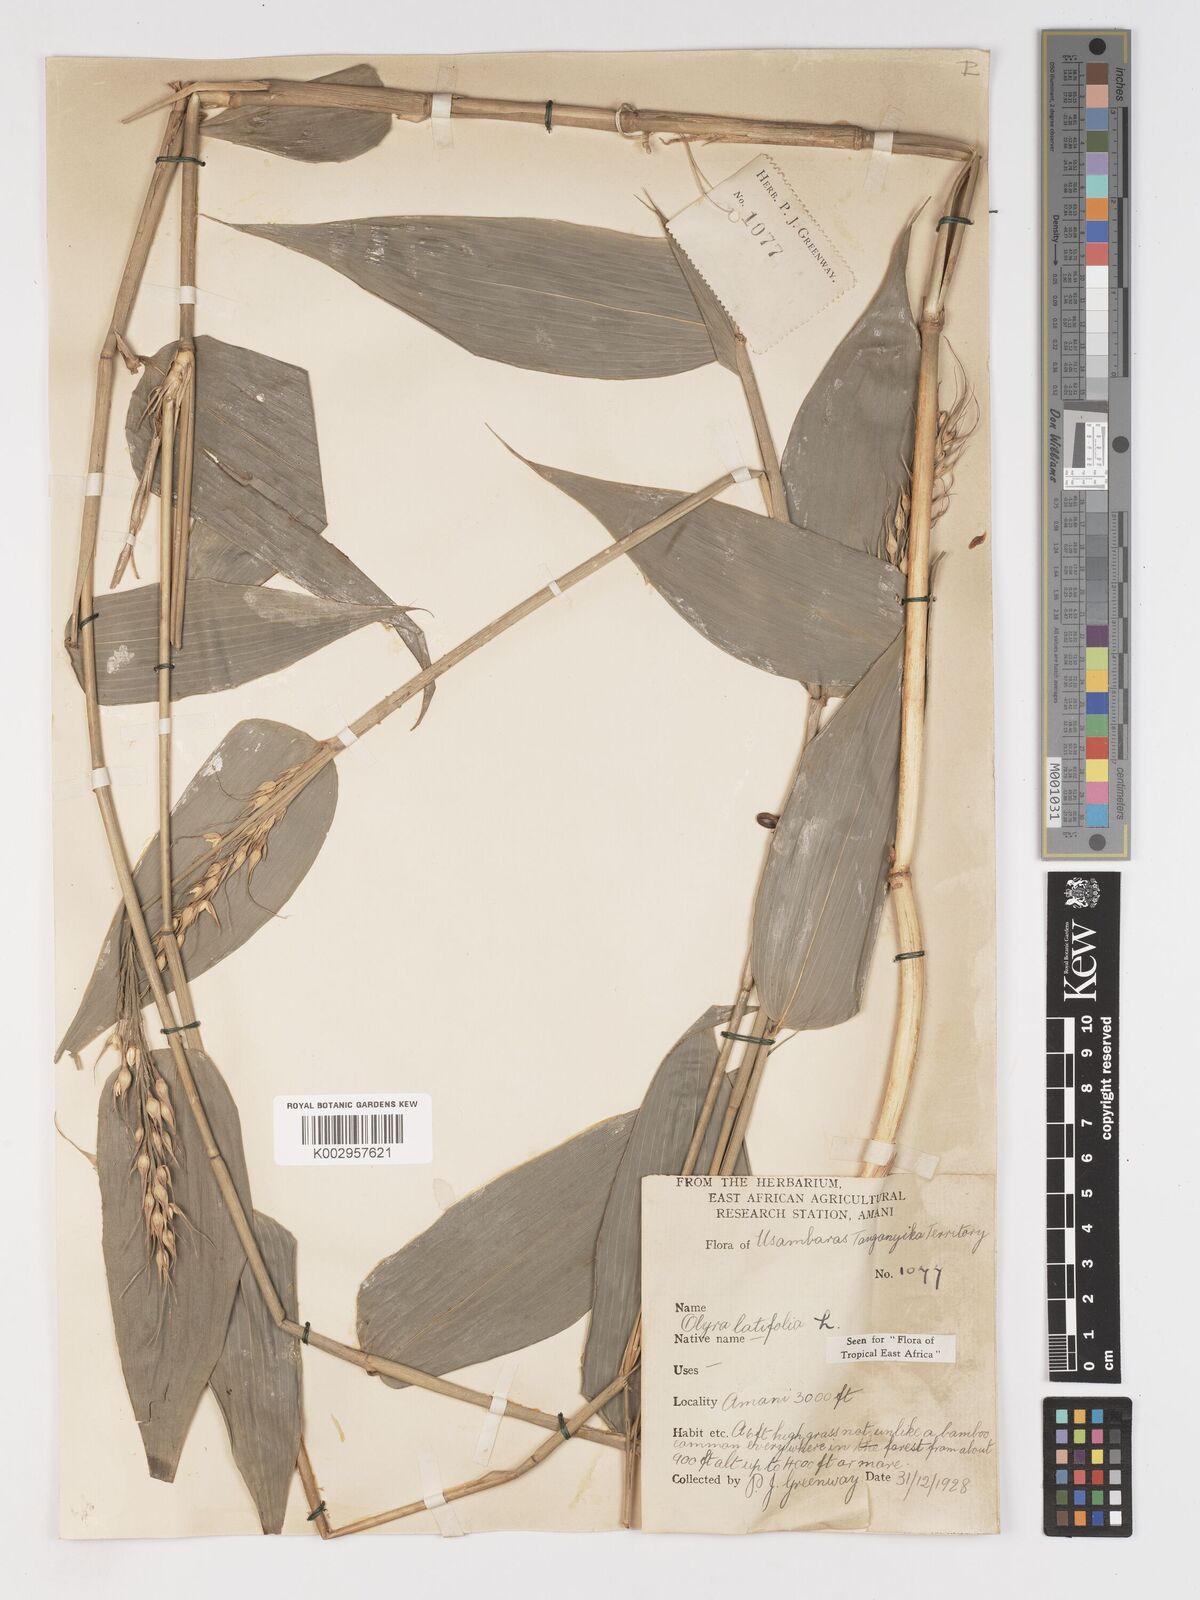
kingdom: Plantae
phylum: Tracheophyta
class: Liliopsida
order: Poales
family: Poaceae
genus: Olyra
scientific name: Olyra latifolia
